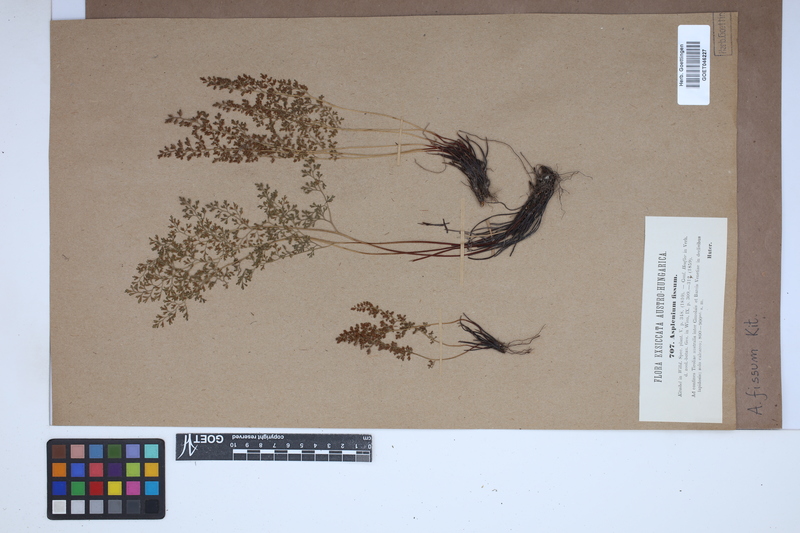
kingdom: Plantae
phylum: Tracheophyta
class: Polypodiopsida
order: Polypodiales
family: Aspleniaceae
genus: Asplenium
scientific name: Asplenium fissum
